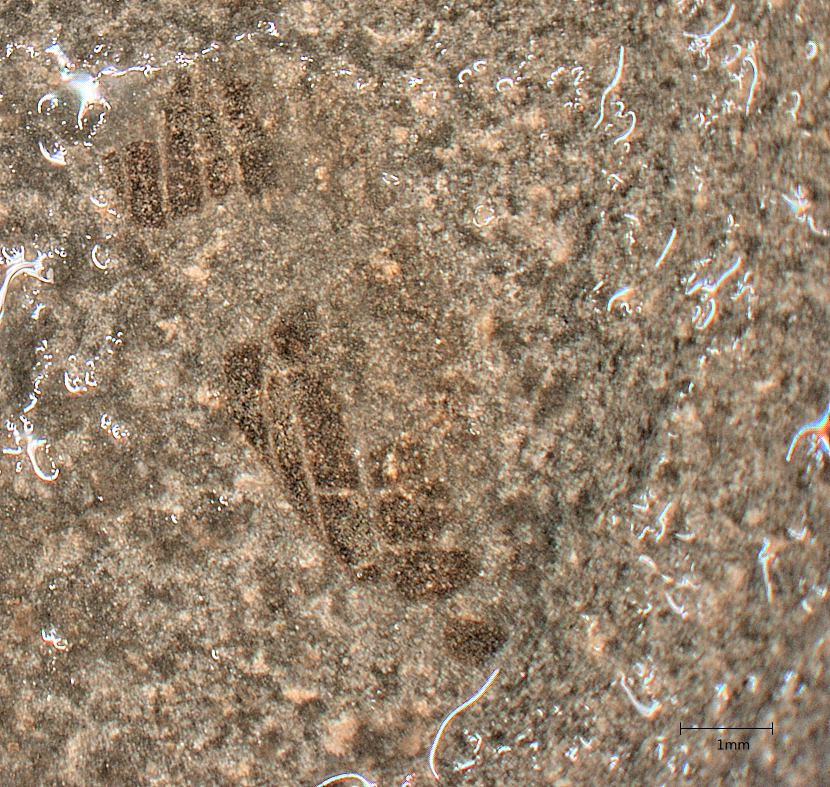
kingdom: Animalia
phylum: Arthropoda
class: Insecta
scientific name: Insecta
